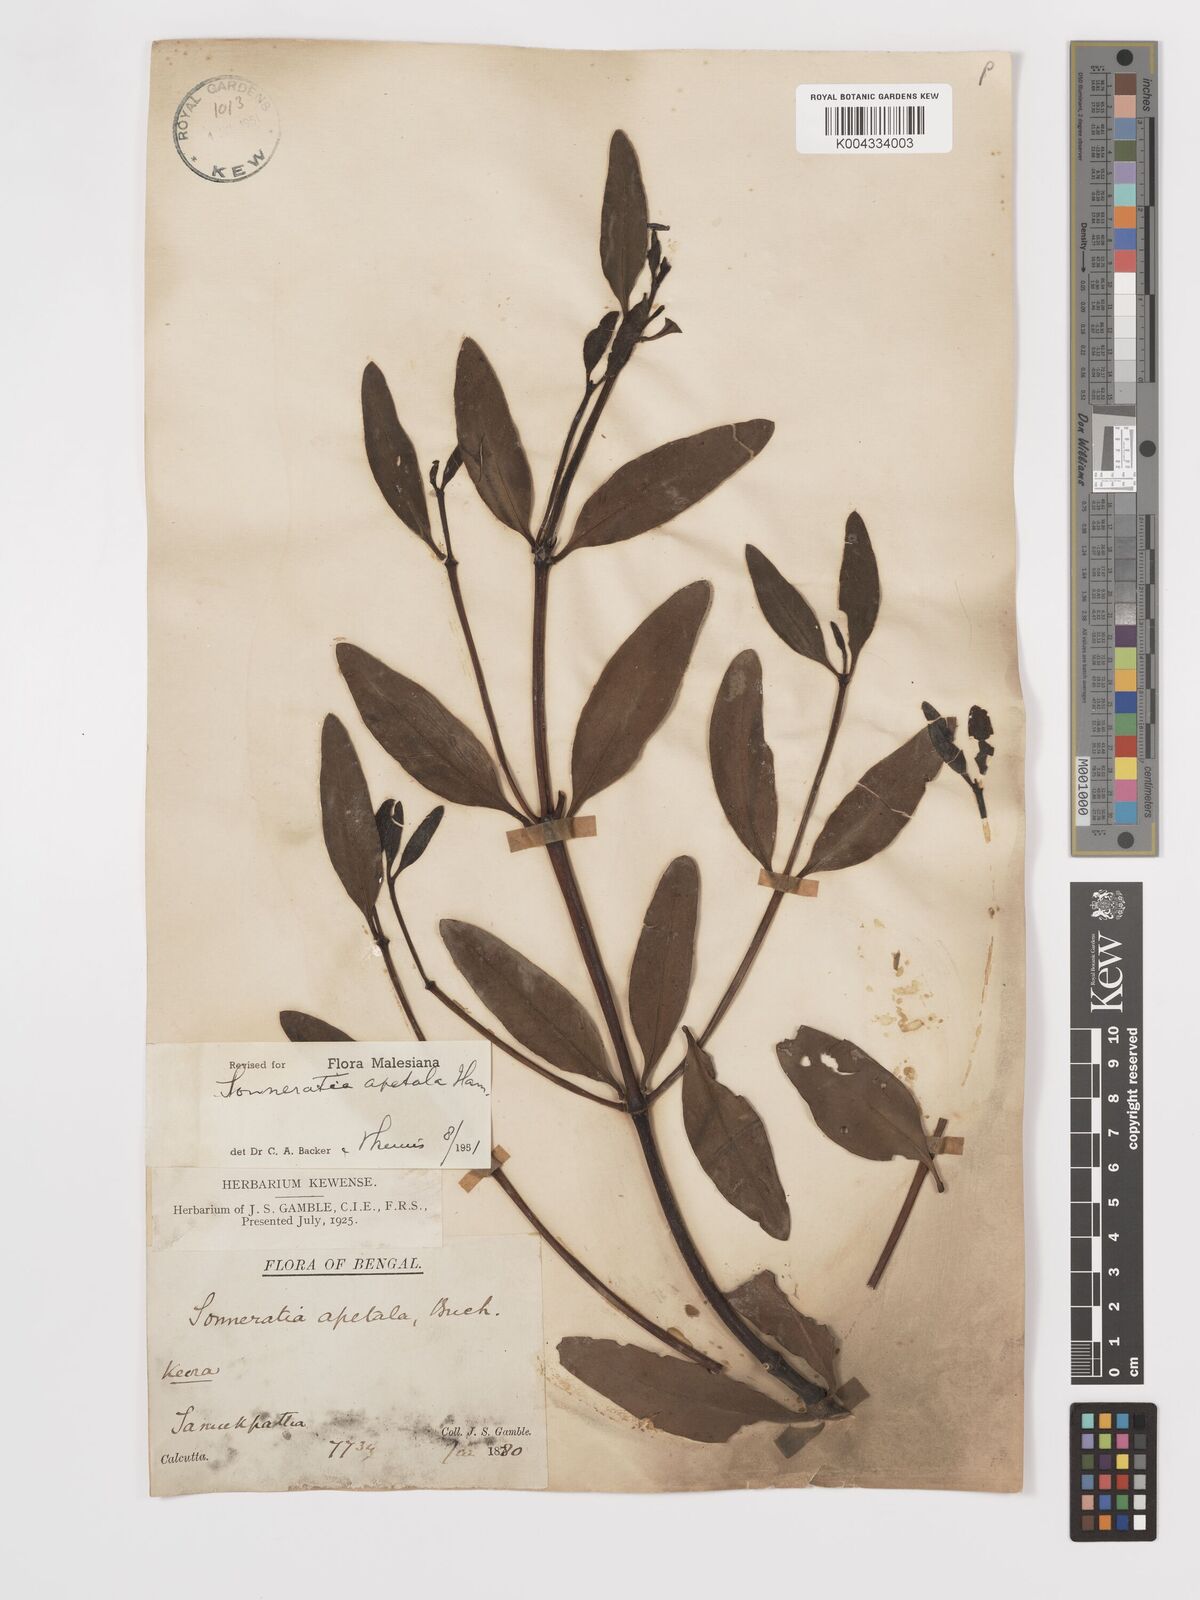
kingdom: Plantae
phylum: Tracheophyta
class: Magnoliopsida
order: Myrtales
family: Lythraceae
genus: Sonneratia
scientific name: Sonneratia apetala
